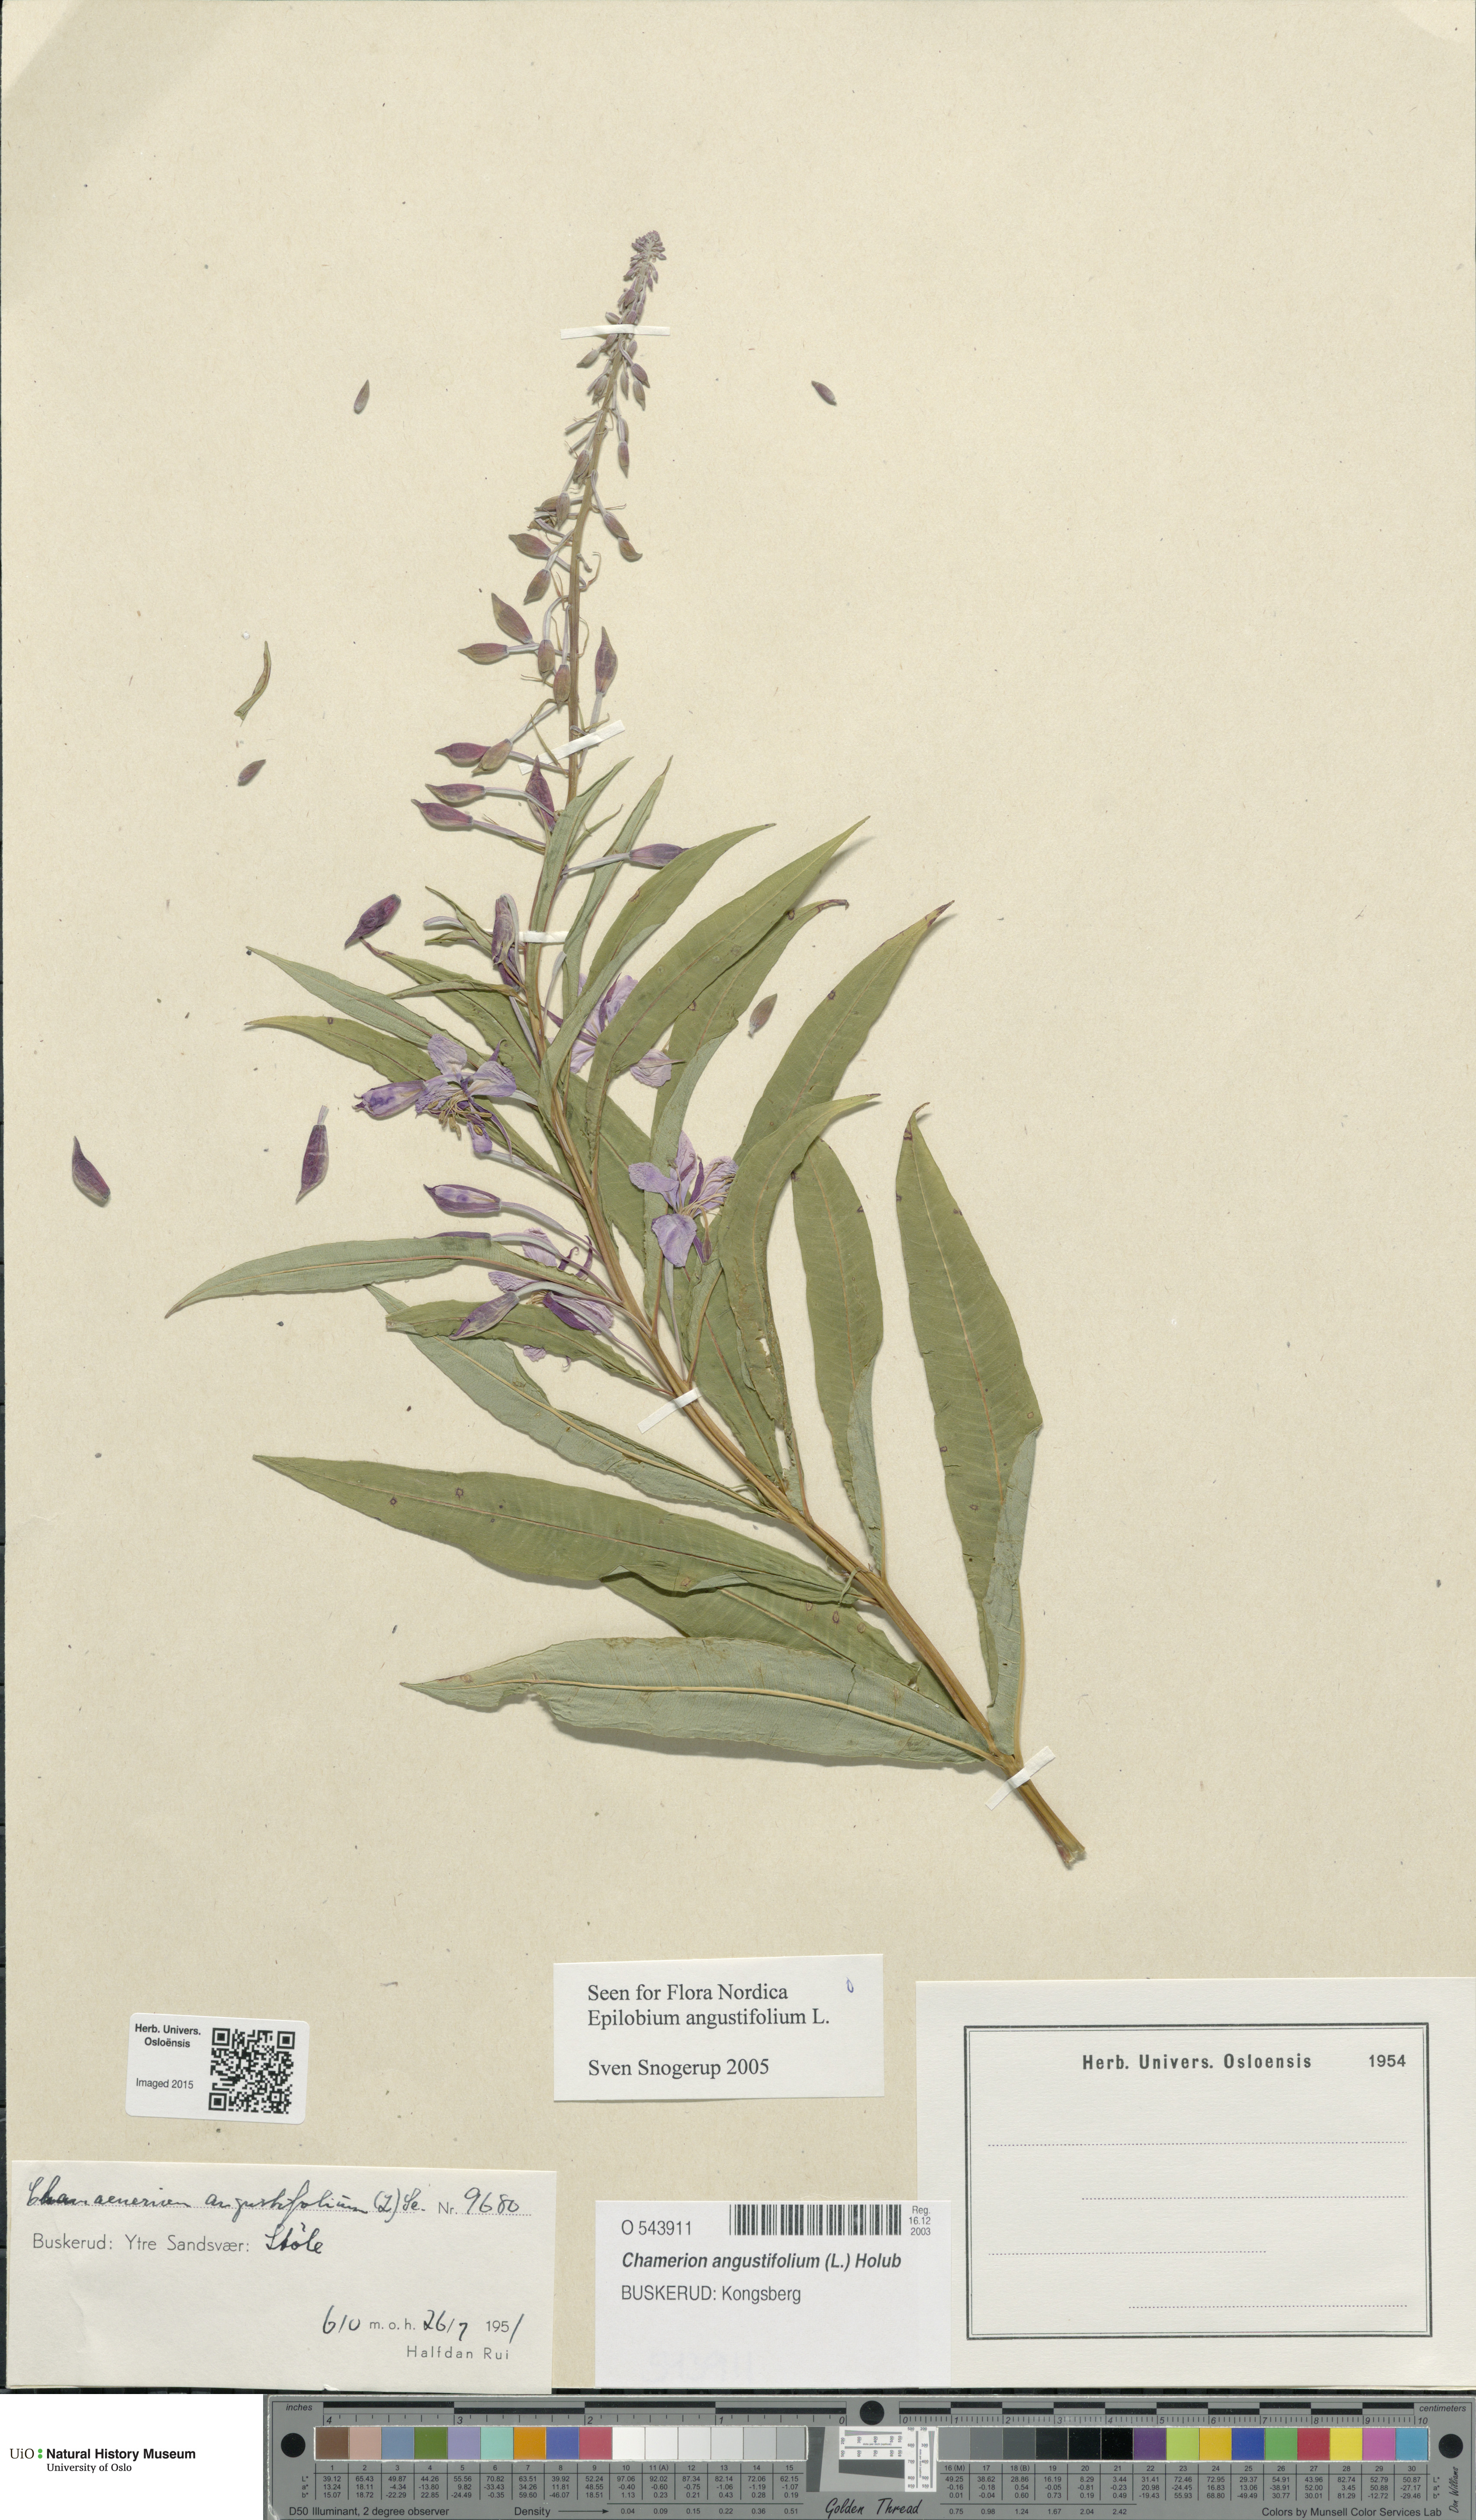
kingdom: Plantae
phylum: Tracheophyta
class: Magnoliopsida
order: Myrtales
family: Onagraceae
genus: Chamaenerion
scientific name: Chamaenerion angustifolium
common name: Fireweed
